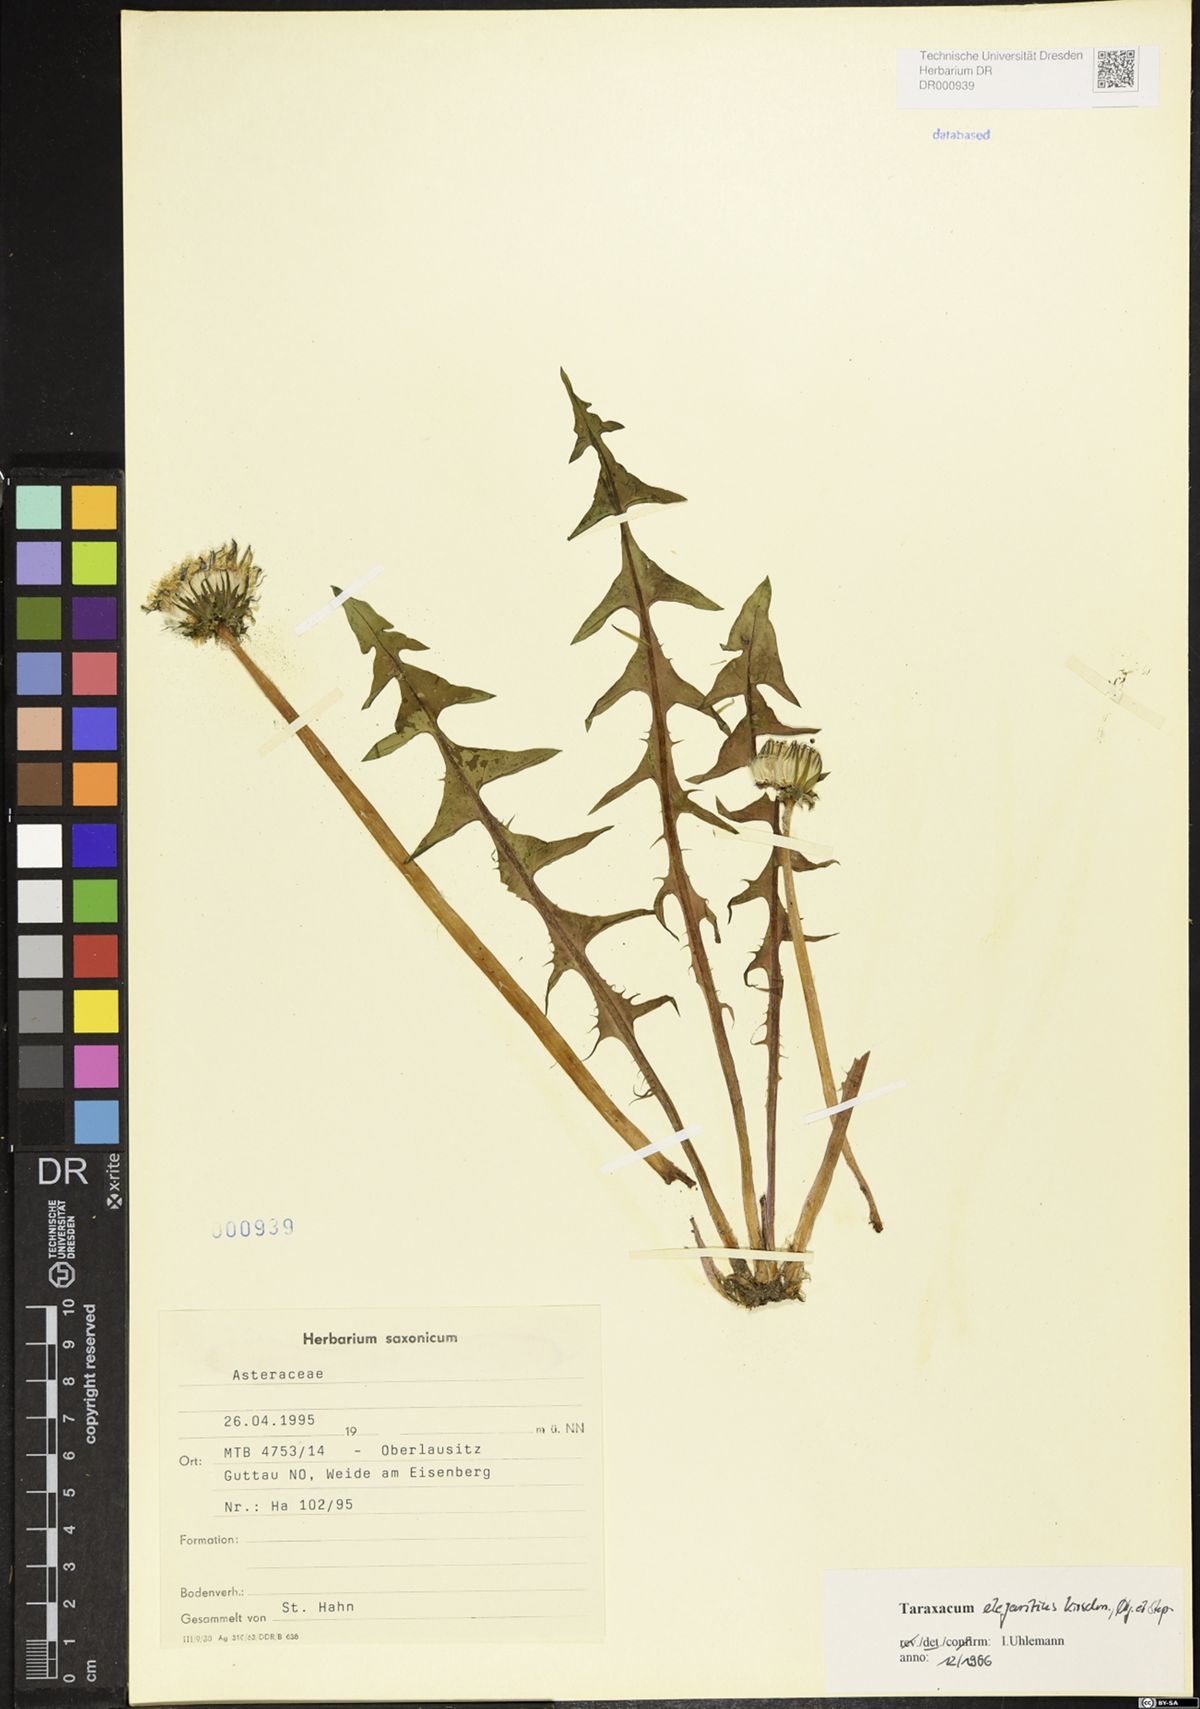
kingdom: Plantae
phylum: Tracheophyta
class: Magnoliopsida
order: Asterales
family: Asteraceae
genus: Taraxacum
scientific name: Taraxacum elegantius
